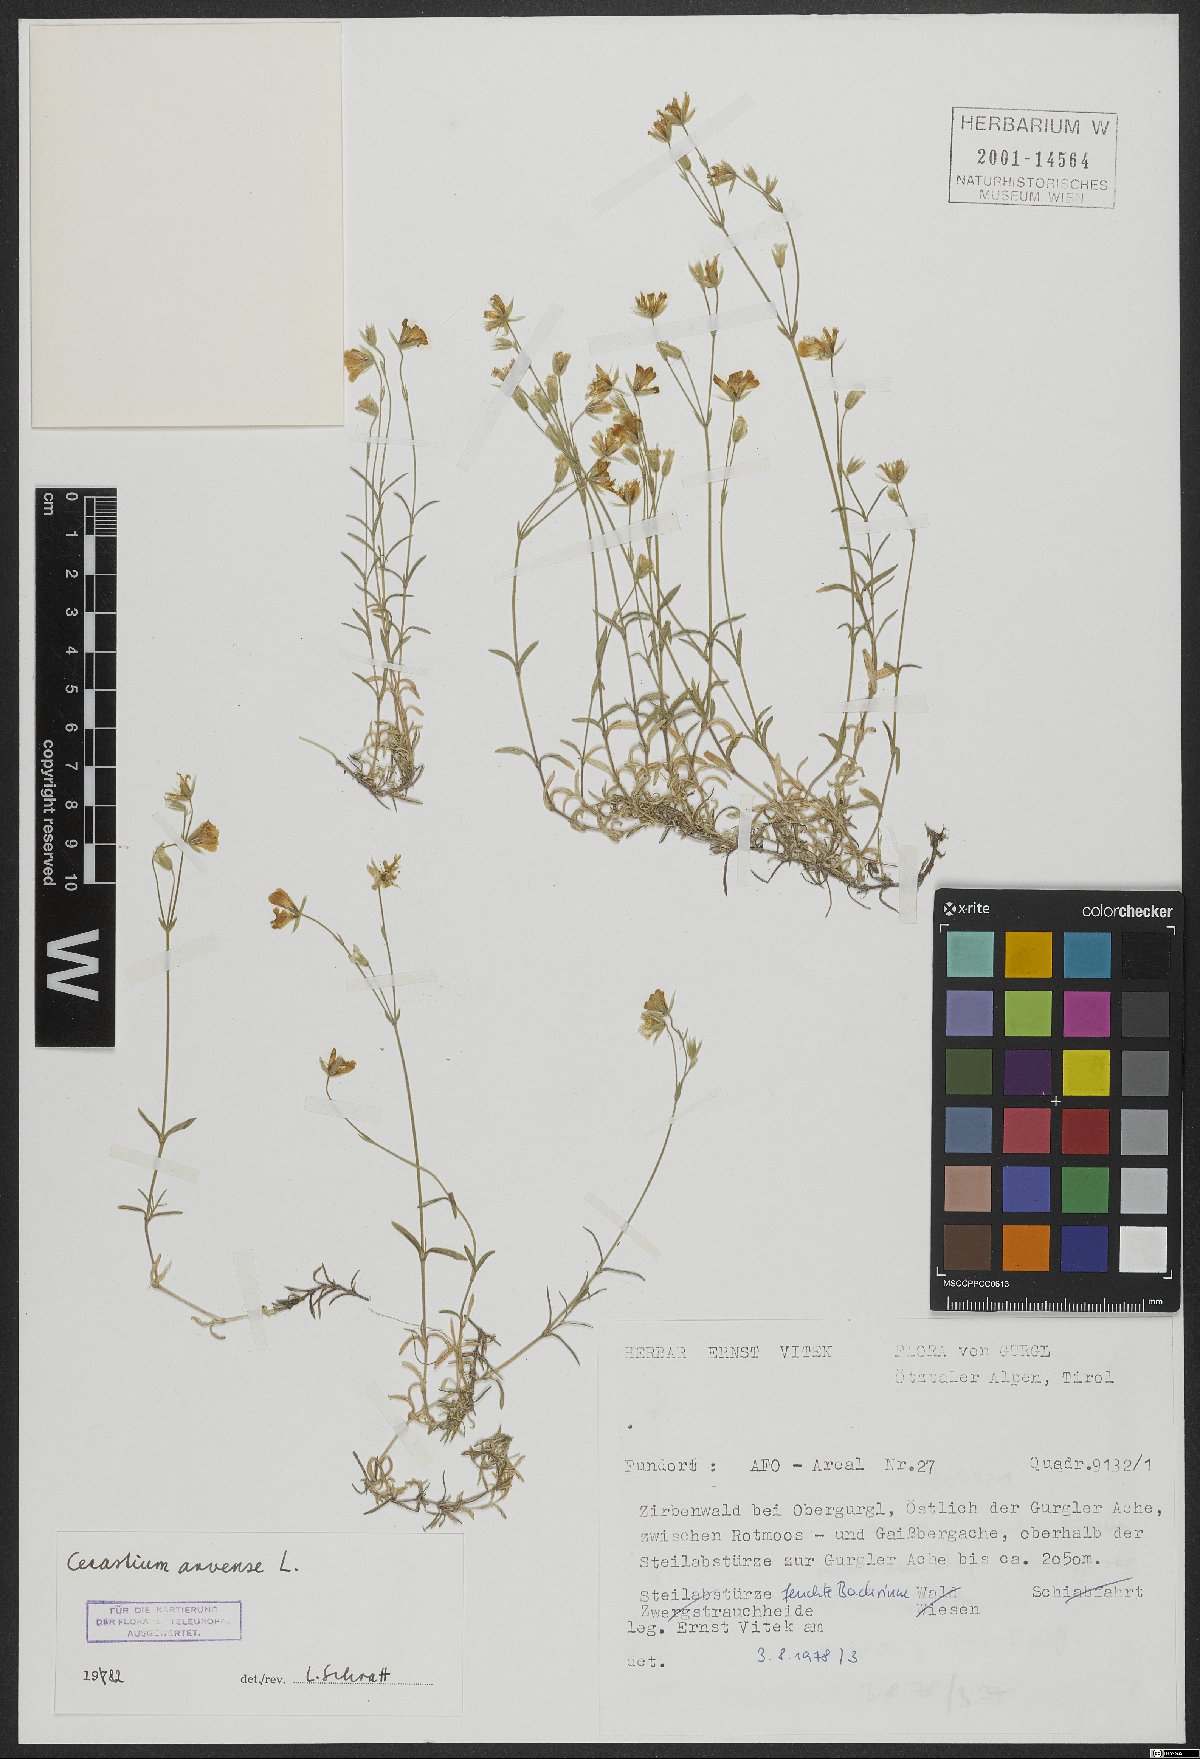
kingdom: Plantae
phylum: Tracheophyta
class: Magnoliopsida
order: Caryophyllales
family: Caryophyllaceae
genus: Cerastium
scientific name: Cerastium arvense
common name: Field mouse-ear
